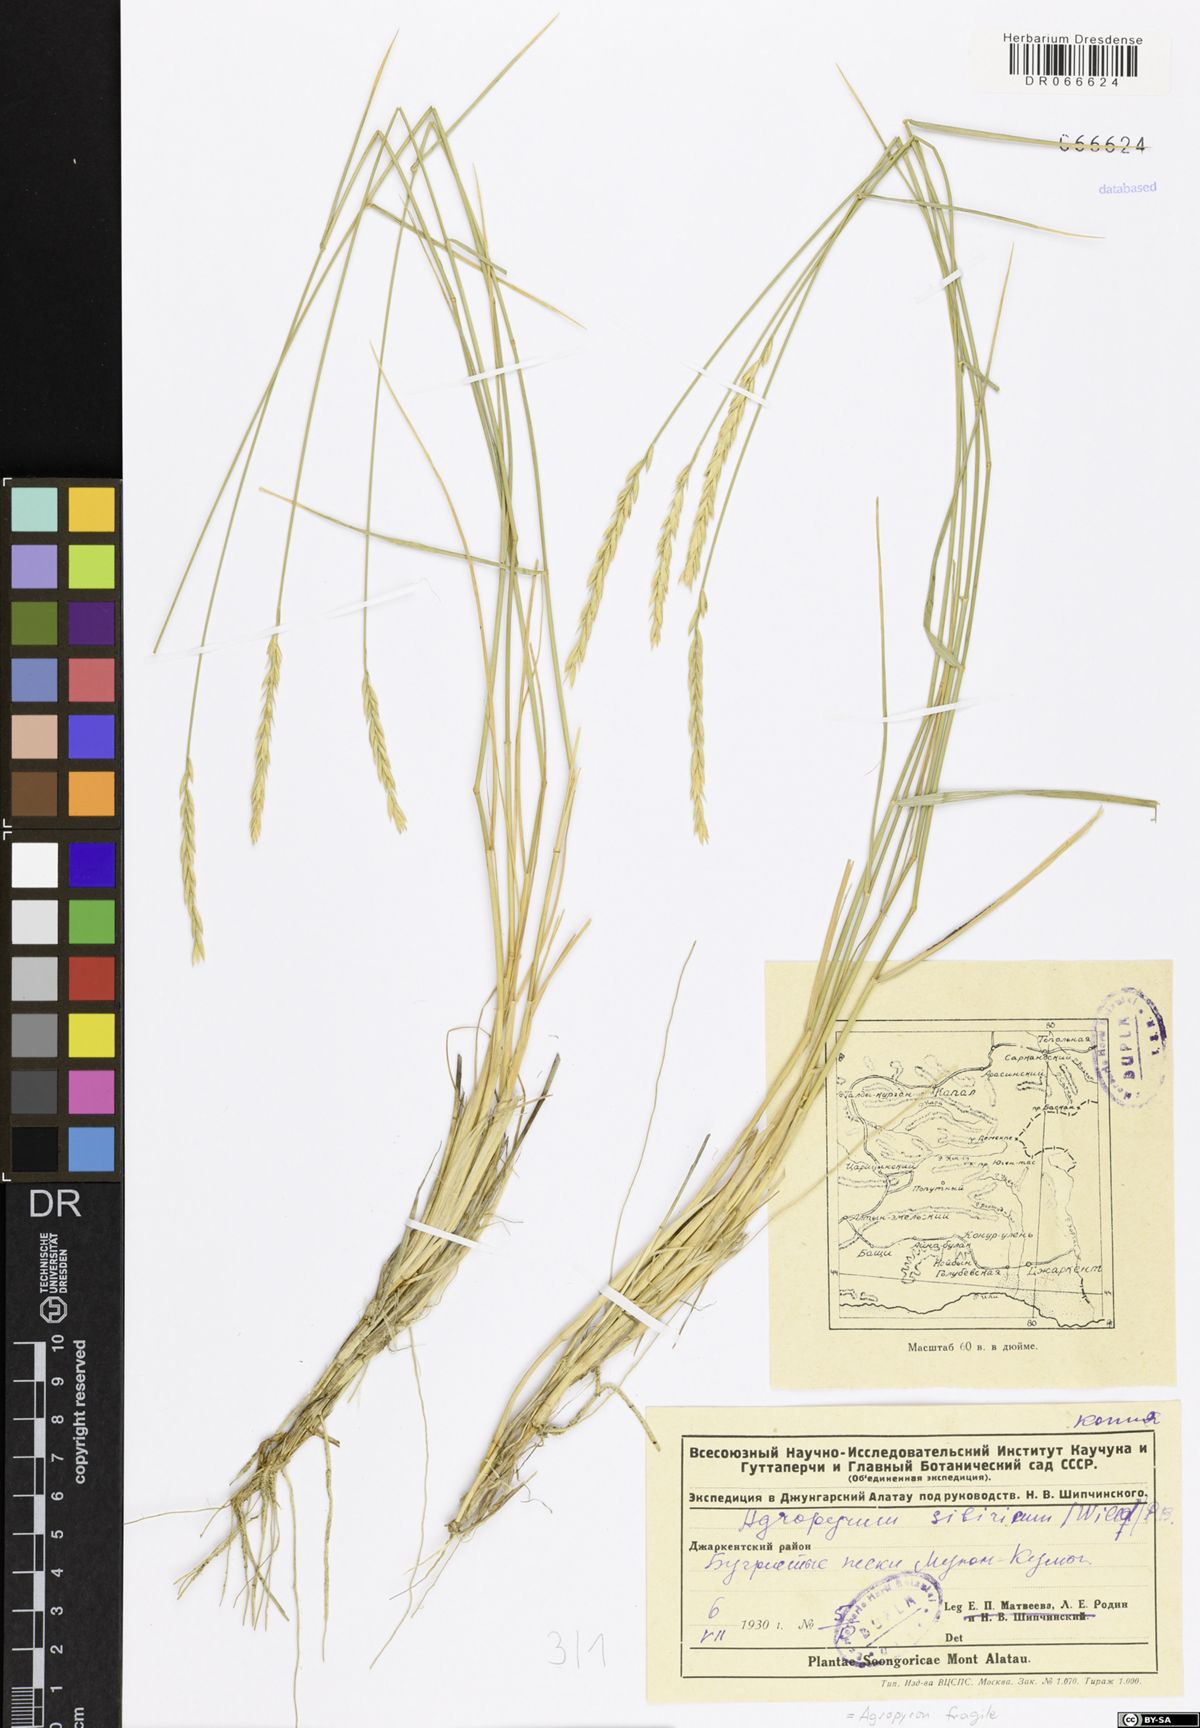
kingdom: Plantae
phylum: Tracheophyta
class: Liliopsida
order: Poales
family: Poaceae
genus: Agropyron
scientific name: Agropyron fragile
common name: Siberian wheatgrass
